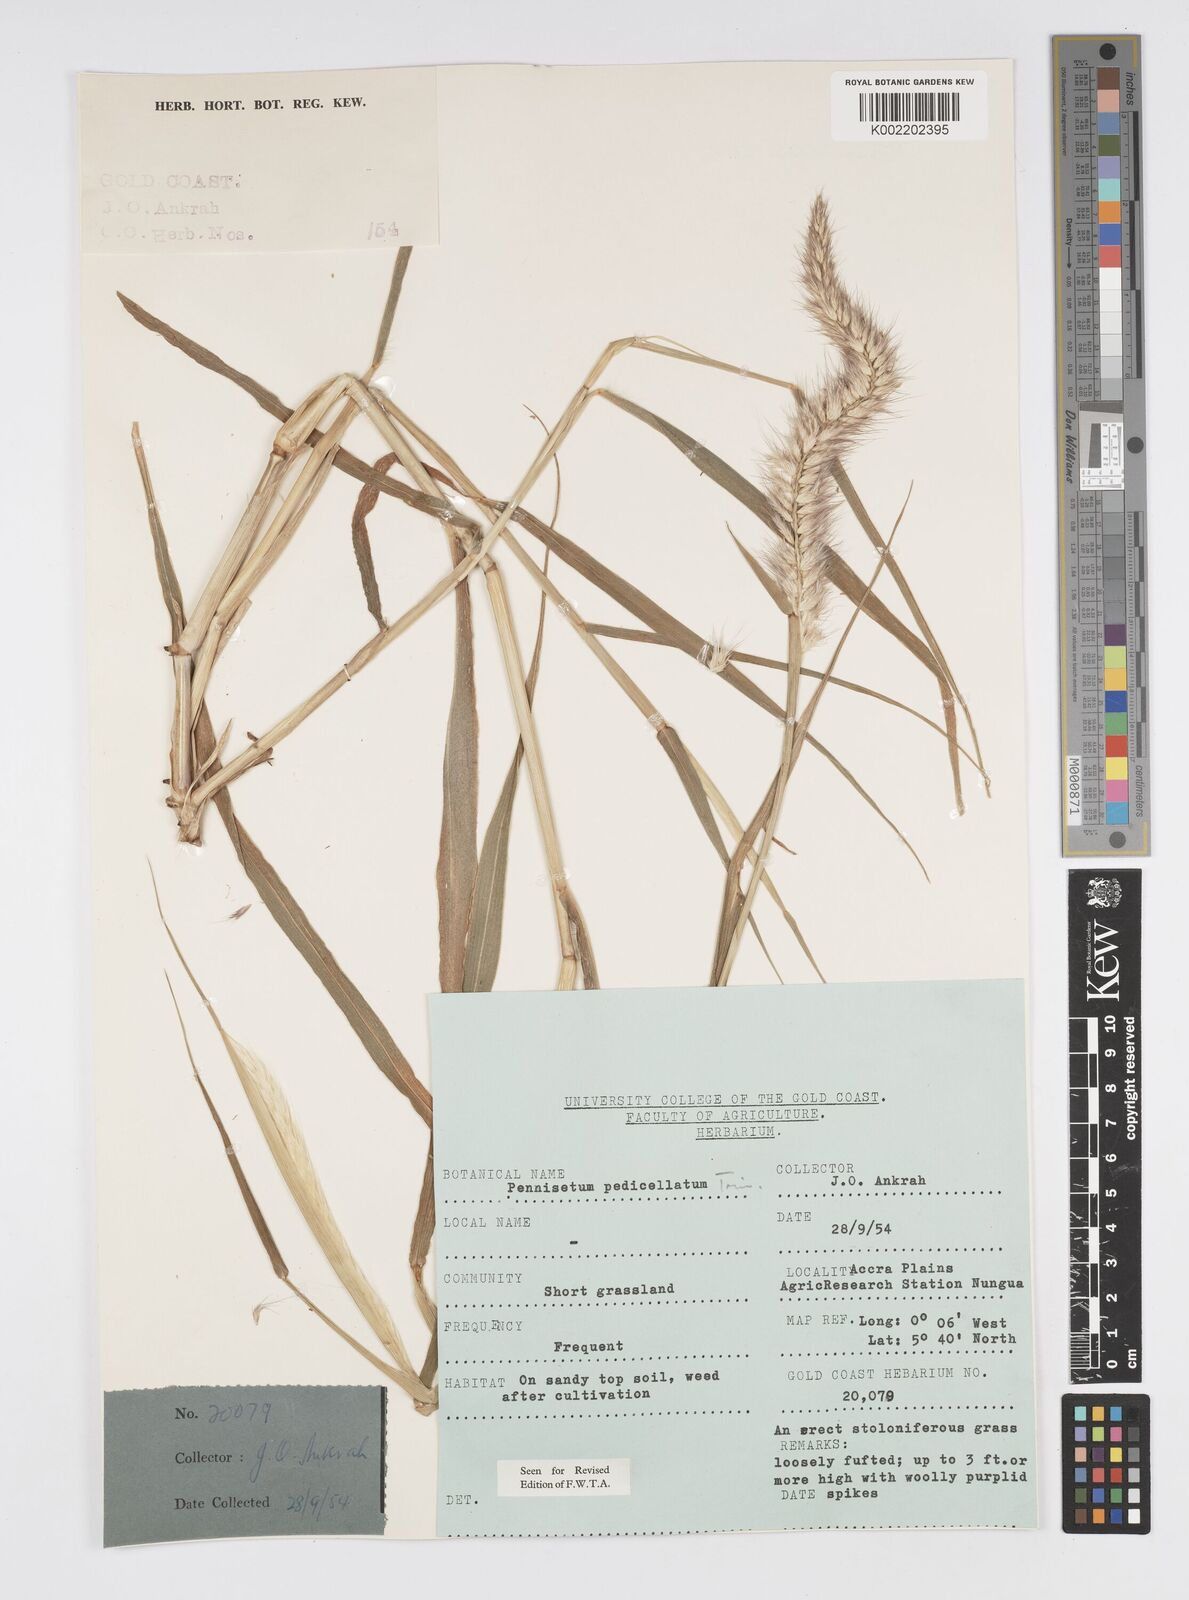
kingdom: Plantae
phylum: Tracheophyta
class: Liliopsida
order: Poales
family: Poaceae
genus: Cenchrus
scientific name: Cenchrus pedicellatus
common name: Hairy fountain grass
